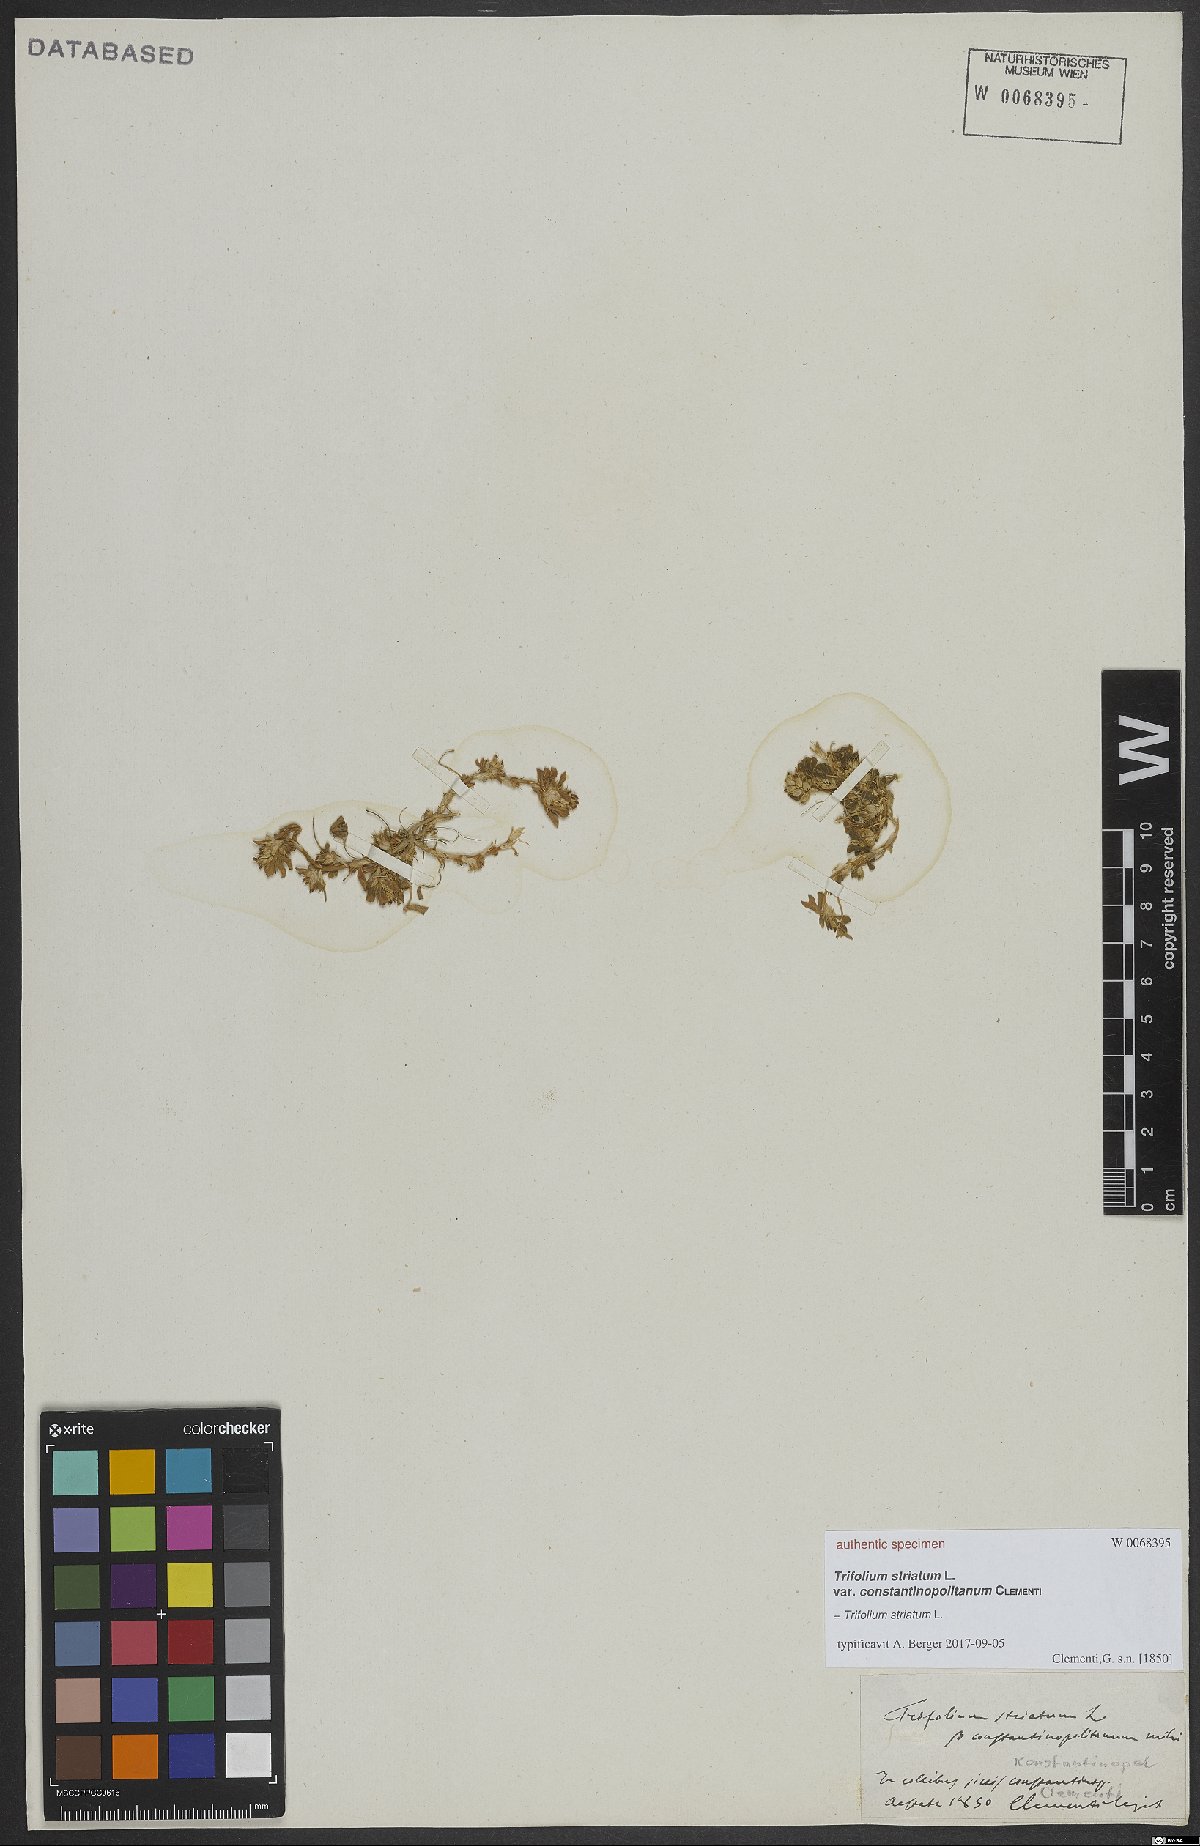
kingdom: Plantae
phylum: Tracheophyta
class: Magnoliopsida
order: Fabales
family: Fabaceae
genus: Trifolium
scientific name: Trifolium striatum
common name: Knotted clover
